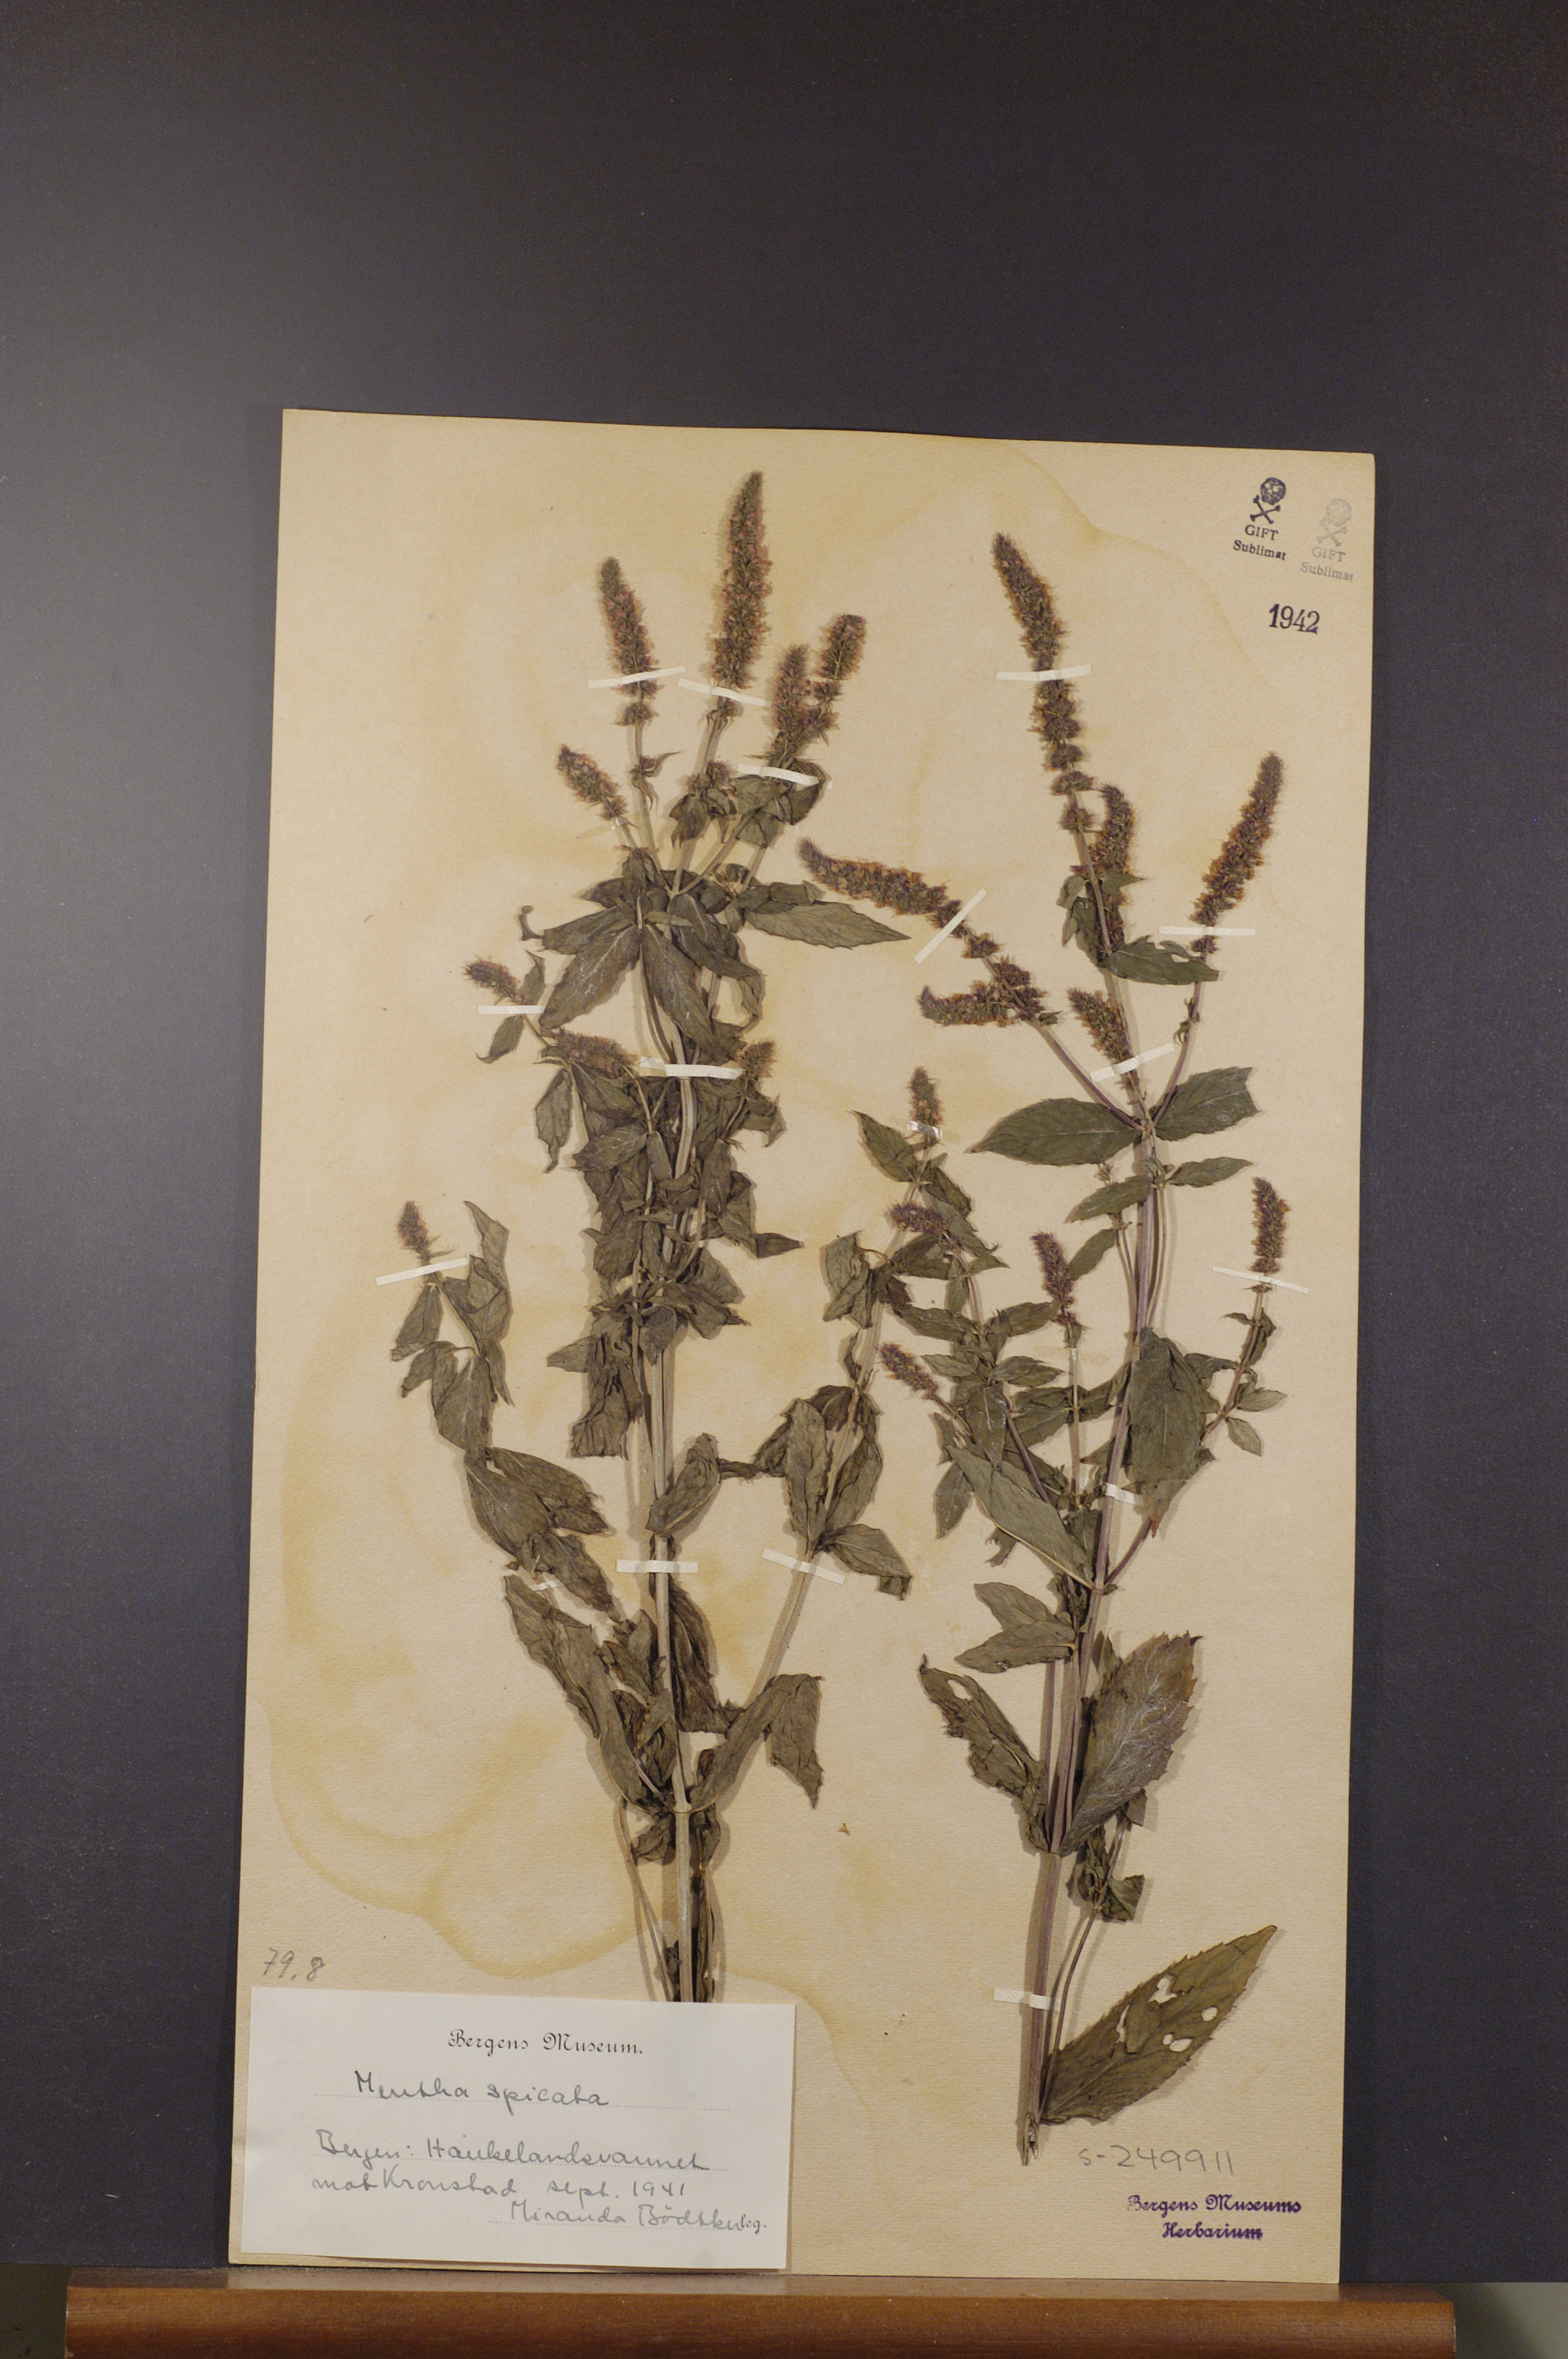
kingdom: Plantae
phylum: Tracheophyta
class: Magnoliopsida
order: Lamiales
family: Lamiaceae
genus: Mentha
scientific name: Mentha spicata
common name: Spearmint
